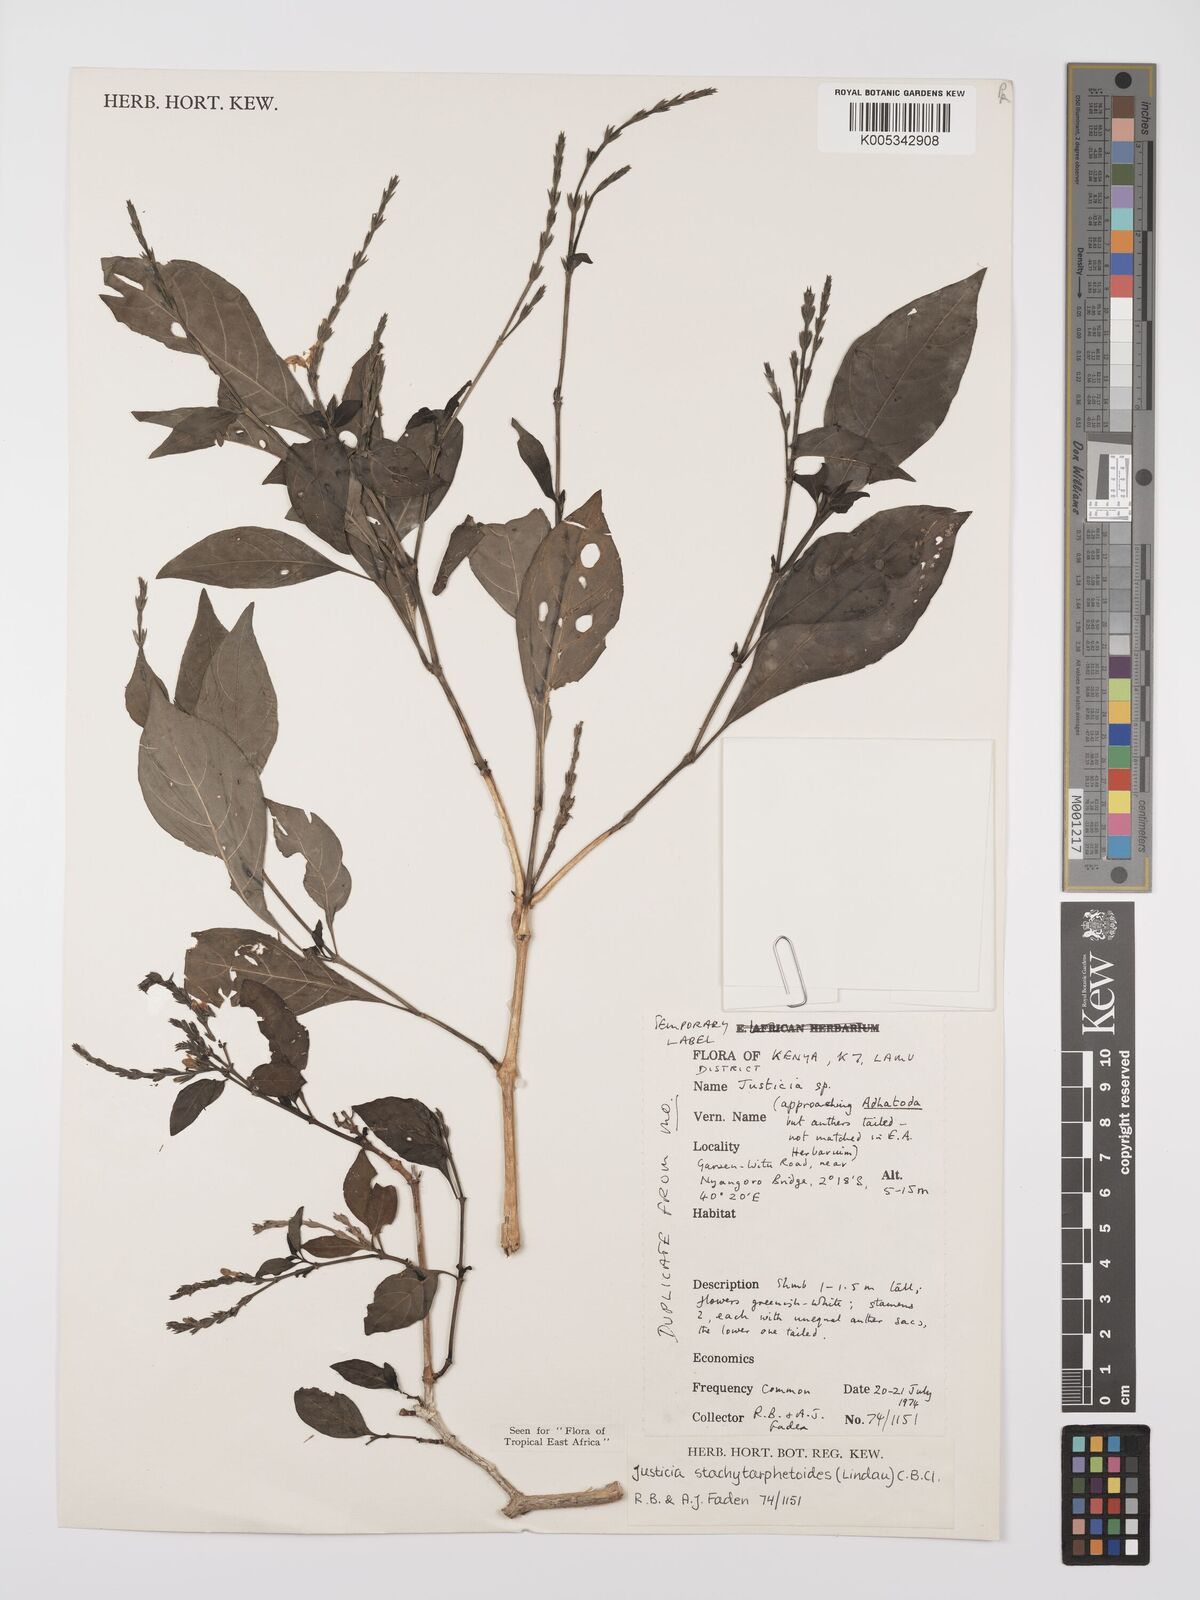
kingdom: Plantae
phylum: Tracheophyta
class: Magnoliopsida
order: Lamiales
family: Acanthaceae
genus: Justicia
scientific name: Justicia stachytarphetoides
